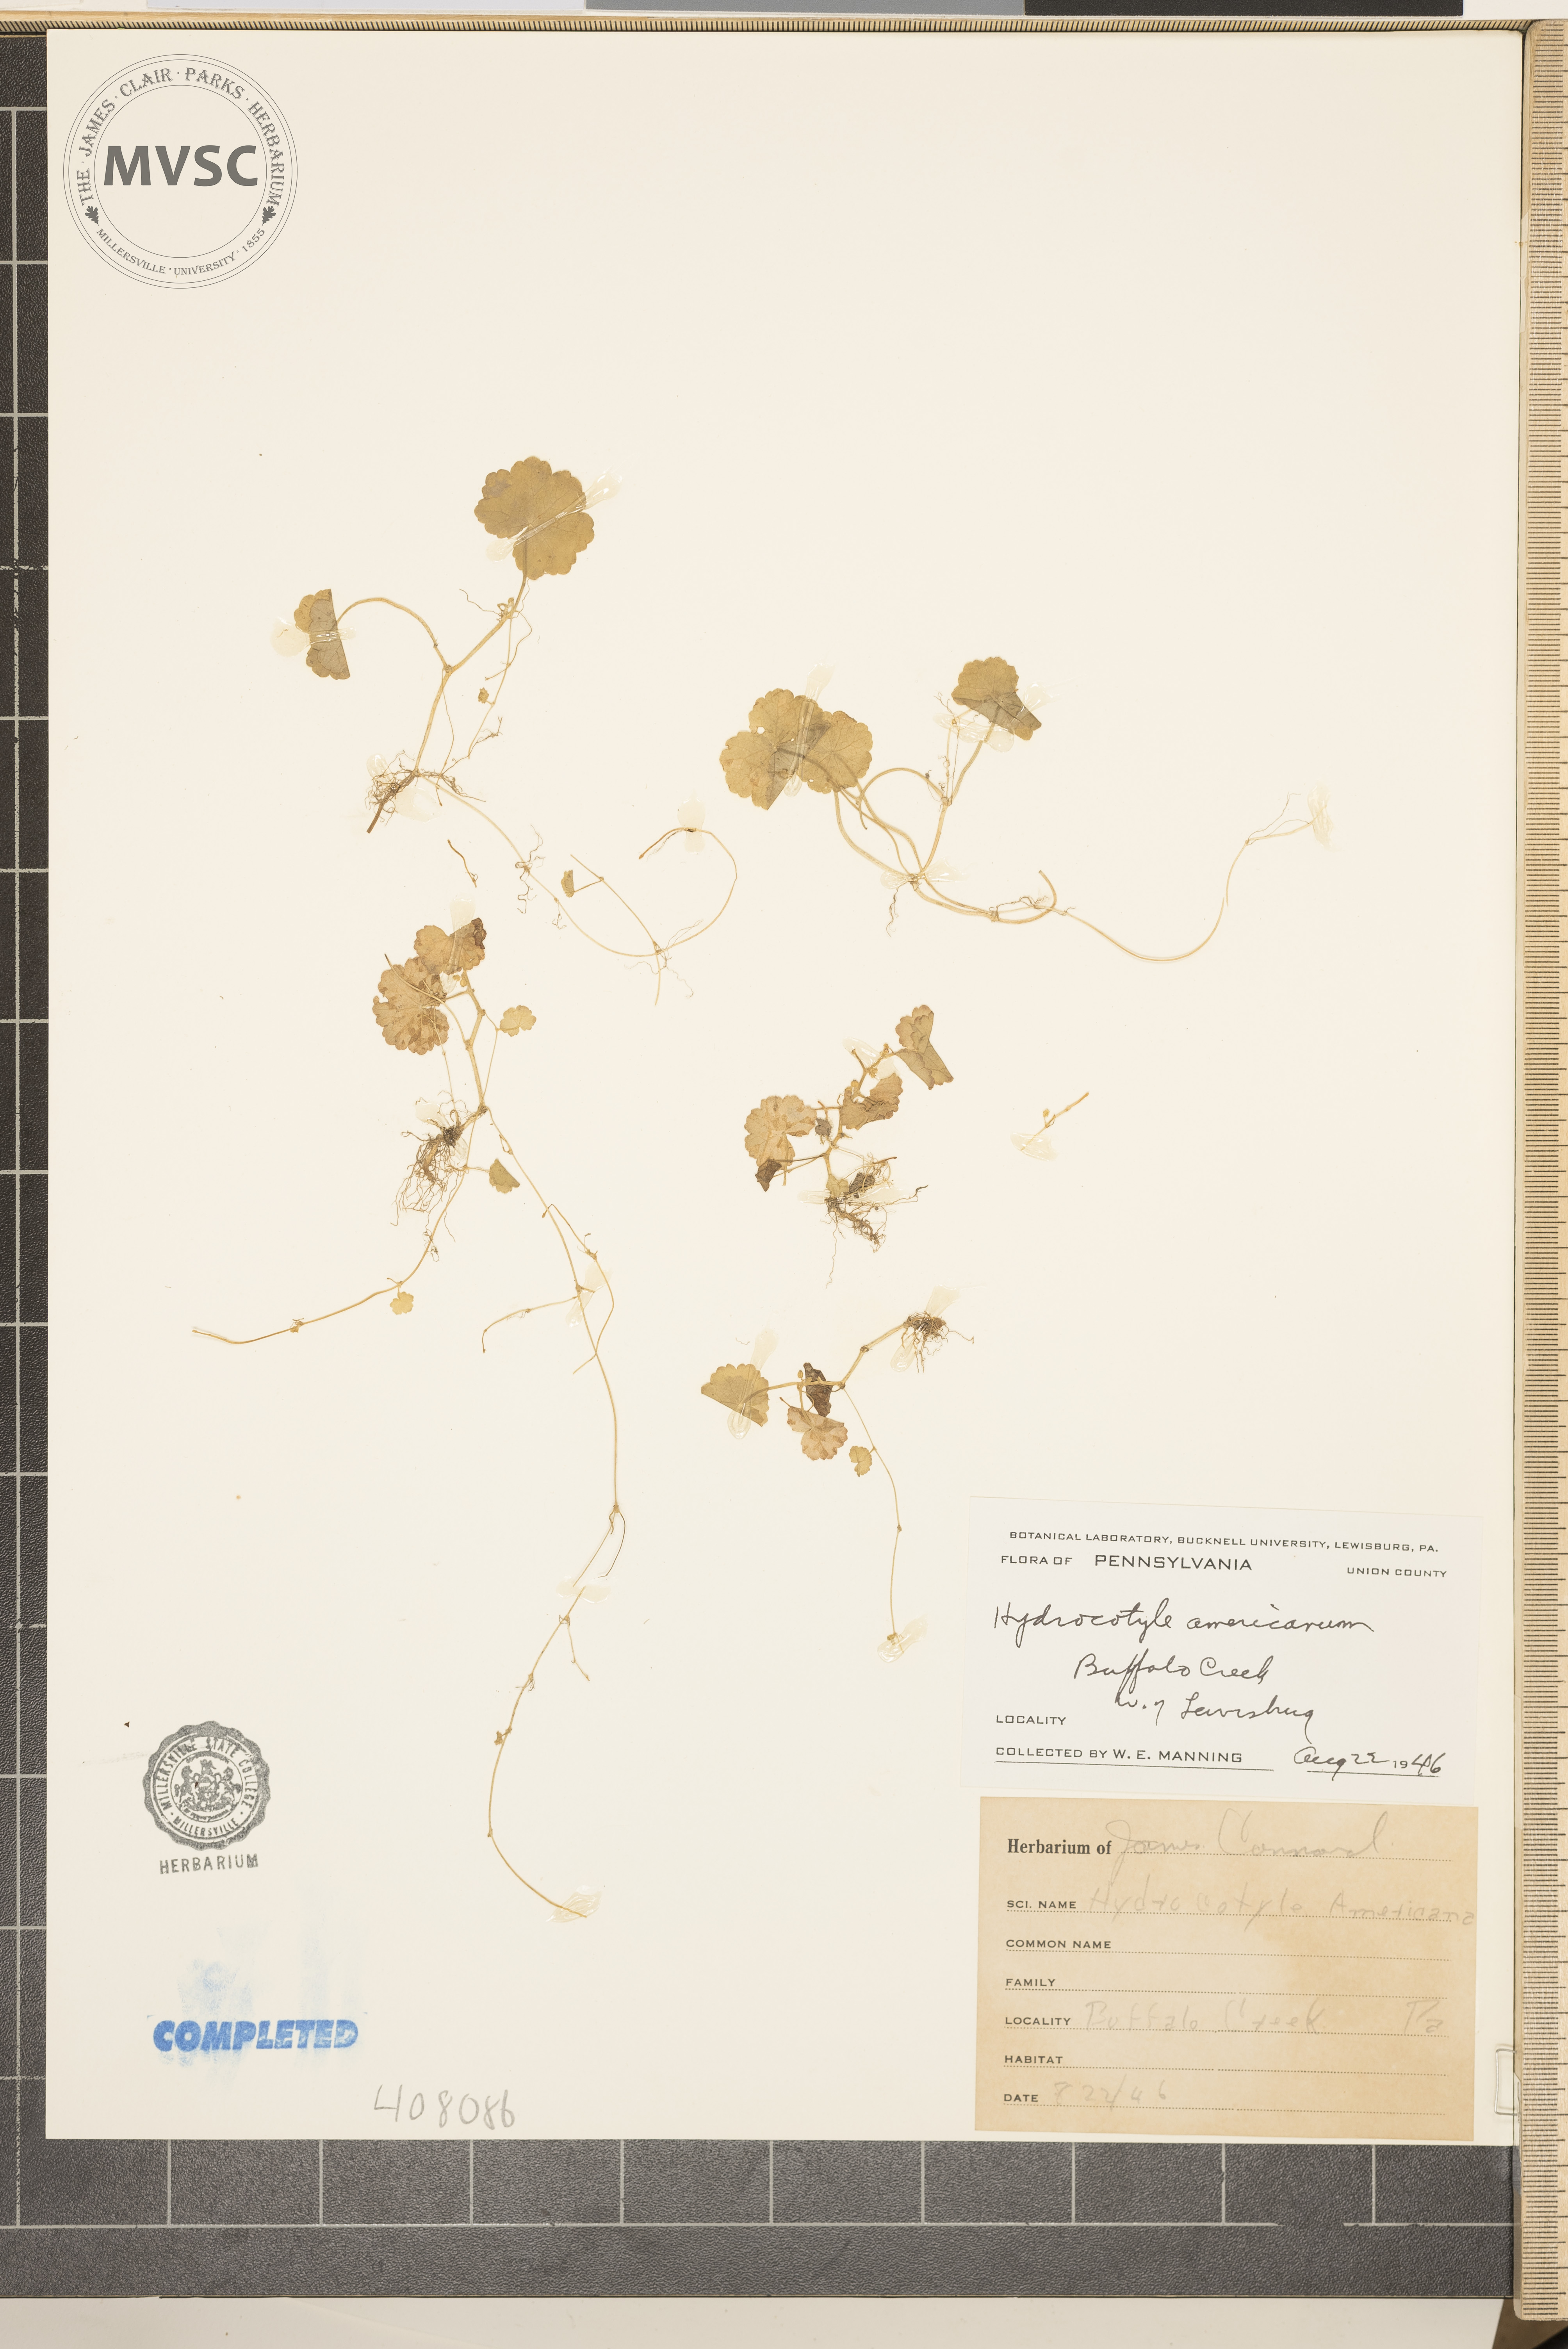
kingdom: Plantae
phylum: Tracheophyta
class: Magnoliopsida
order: Apiales
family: Araliaceae
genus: Hydrocotyle
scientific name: Hydrocotyle americana
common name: American water-pennywort
